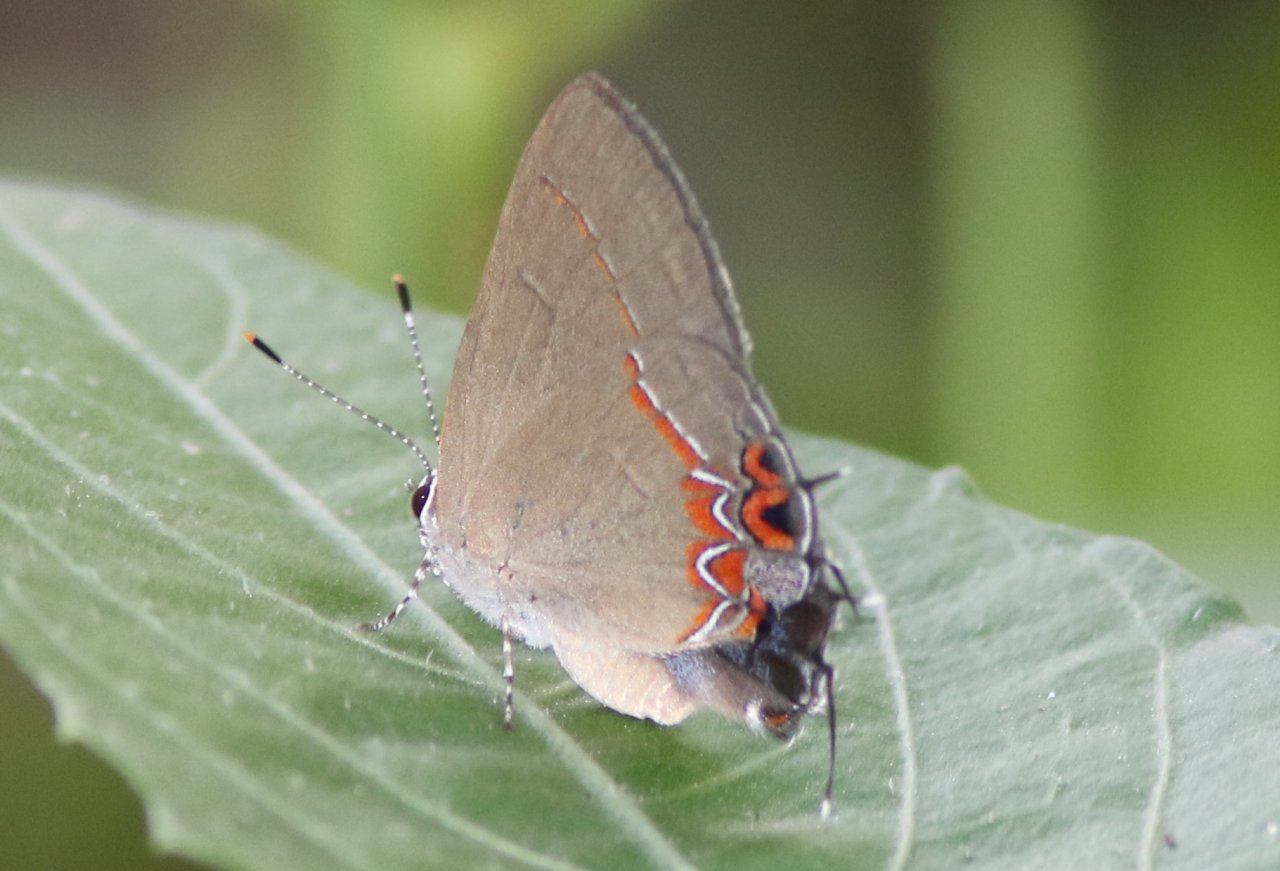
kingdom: Animalia
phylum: Arthropoda
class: Insecta
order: Lepidoptera
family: Lycaenidae
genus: Calycopis
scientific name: Calycopis isobeon
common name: Dusky-blue Groundstreak
